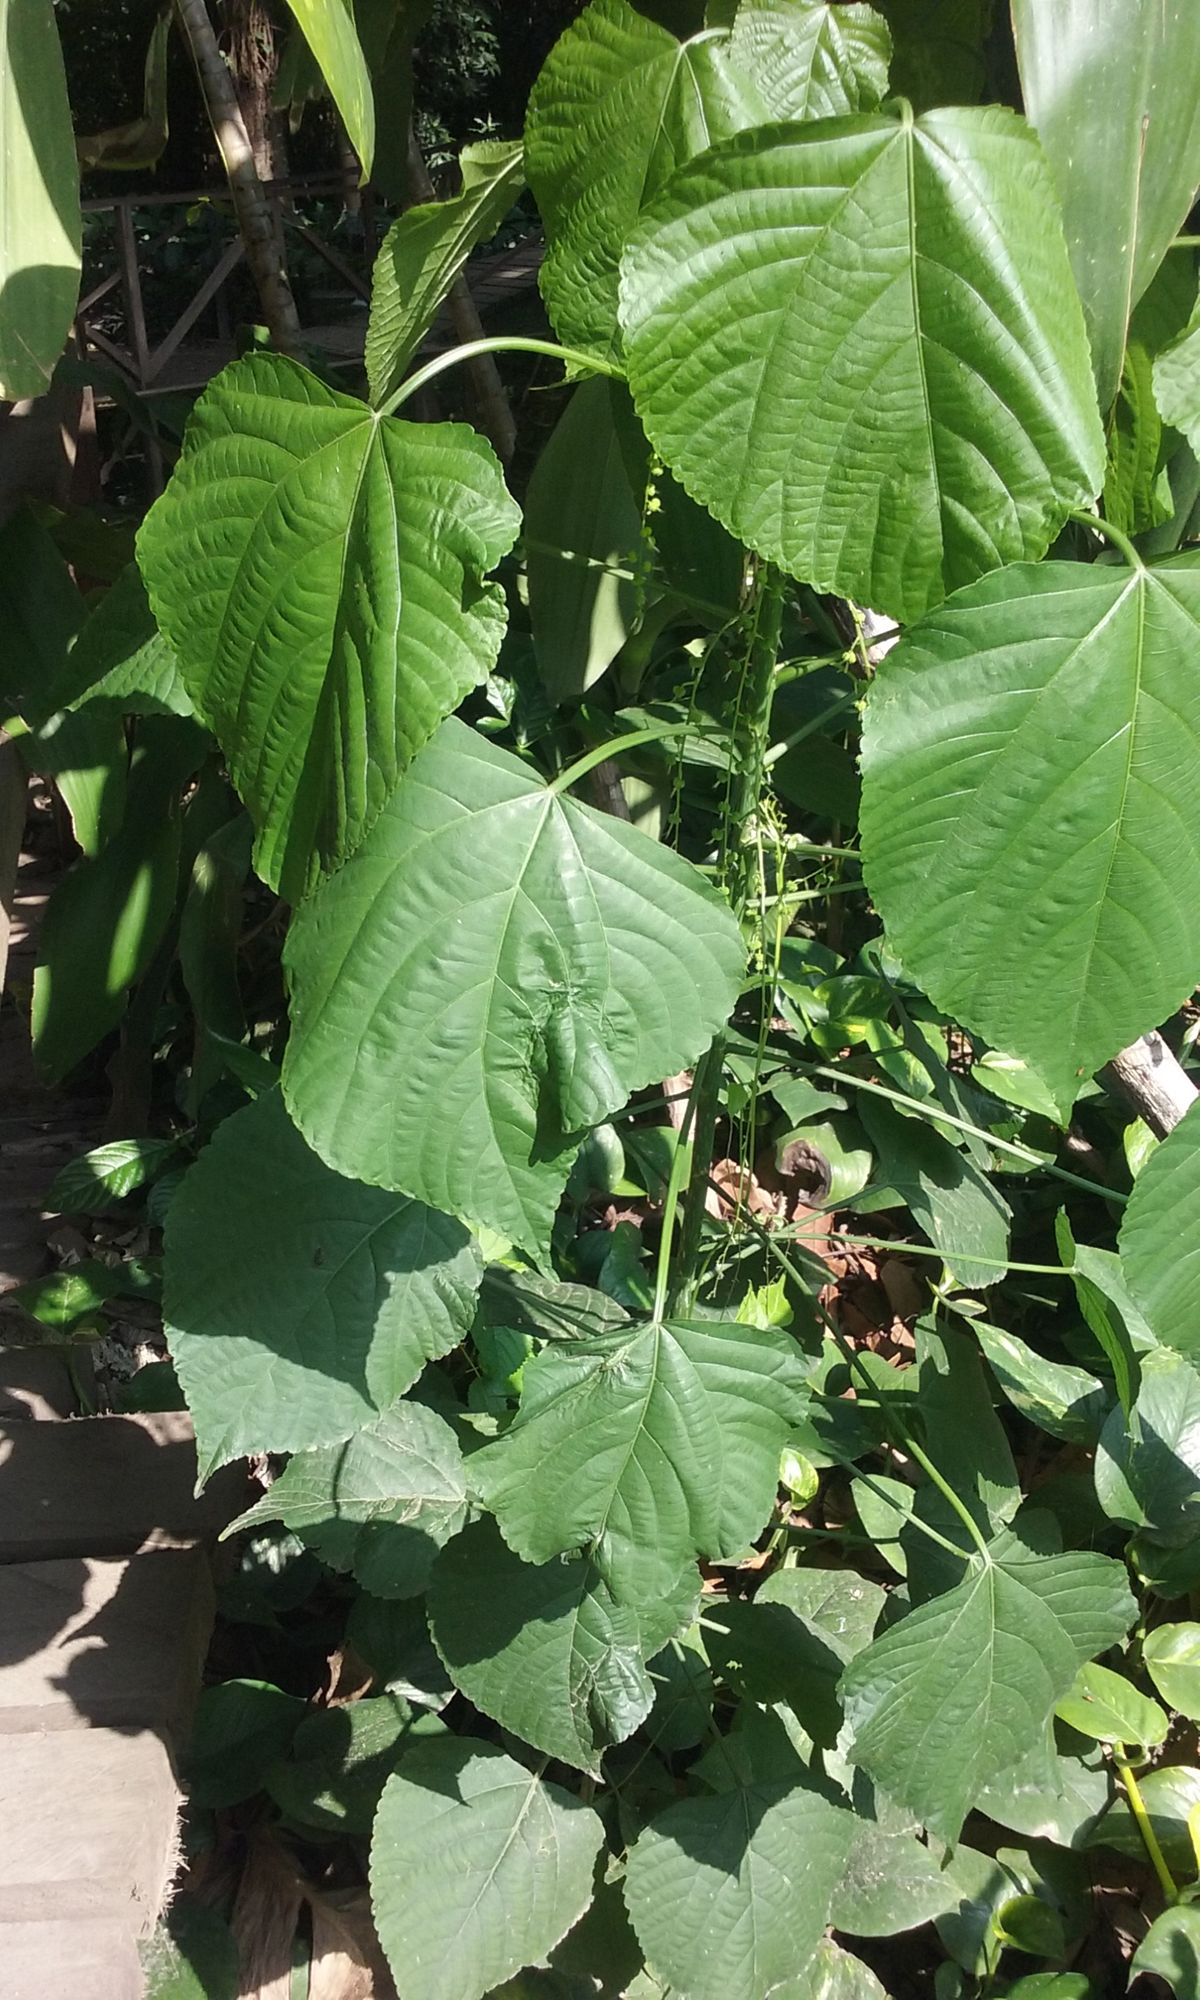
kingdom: Plantae
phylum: Tracheophyta
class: Magnoliopsida
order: Malpighiales
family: Euphorbiaceae
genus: Acalypha
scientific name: Acalypha villosa
